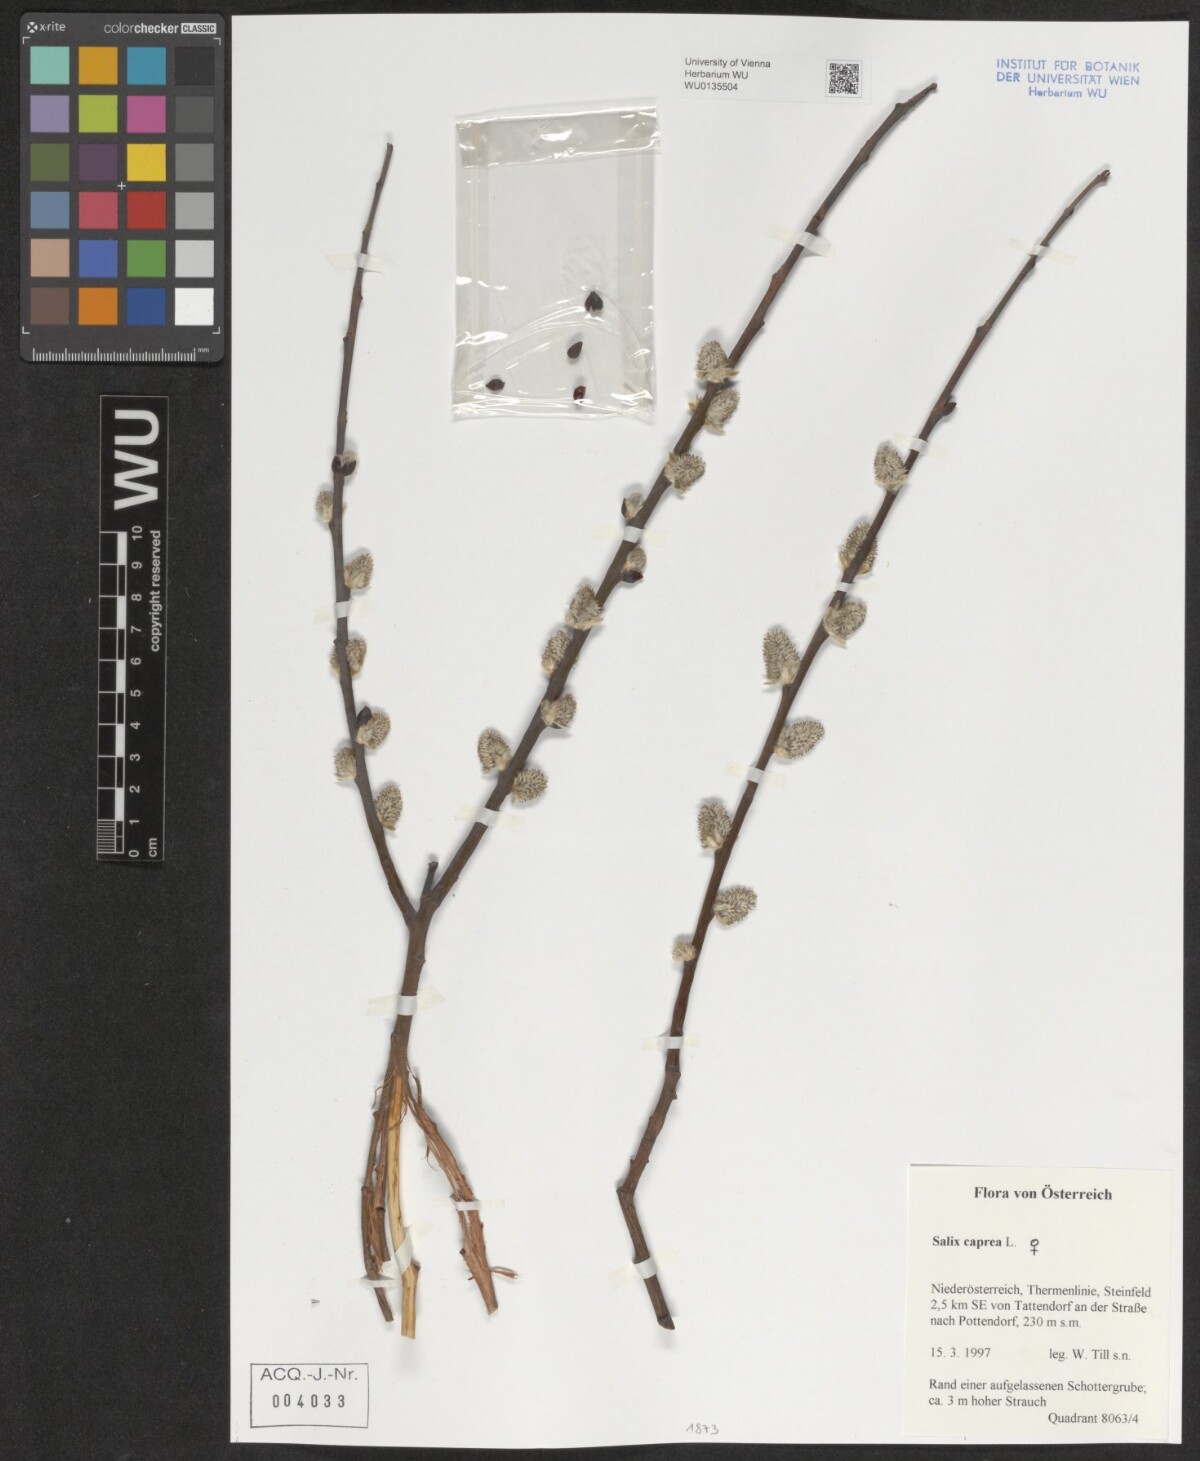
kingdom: Plantae
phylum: Tracheophyta
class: Magnoliopsida
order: Malpighiales
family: Salicaceae
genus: Salix
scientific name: Salix caprea
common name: Goat willow
